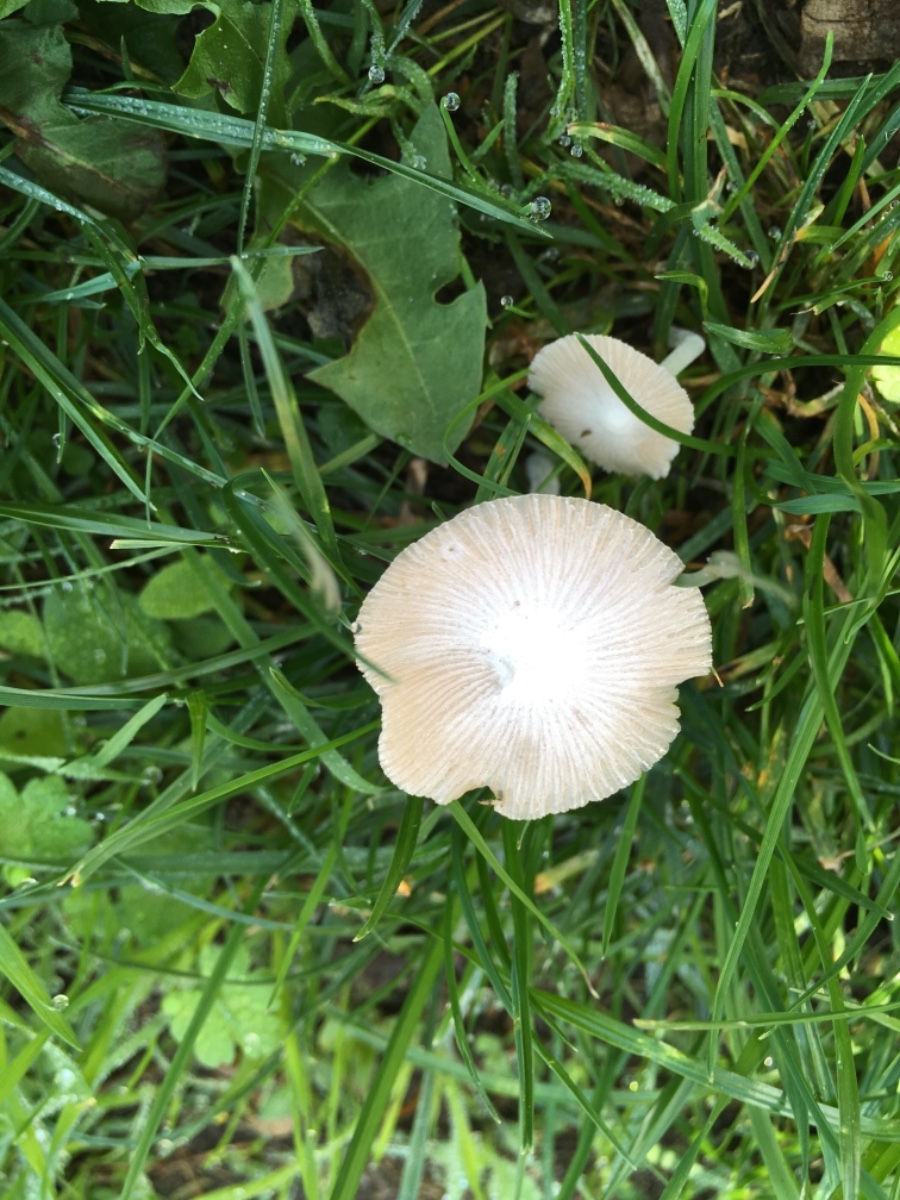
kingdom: Fungi
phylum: Basidiomycota
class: Agaricomycetes
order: Agaricales
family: Bolbitiaceae
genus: Bolbitius
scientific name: Bolbitius titubans
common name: almindelig gulhat
